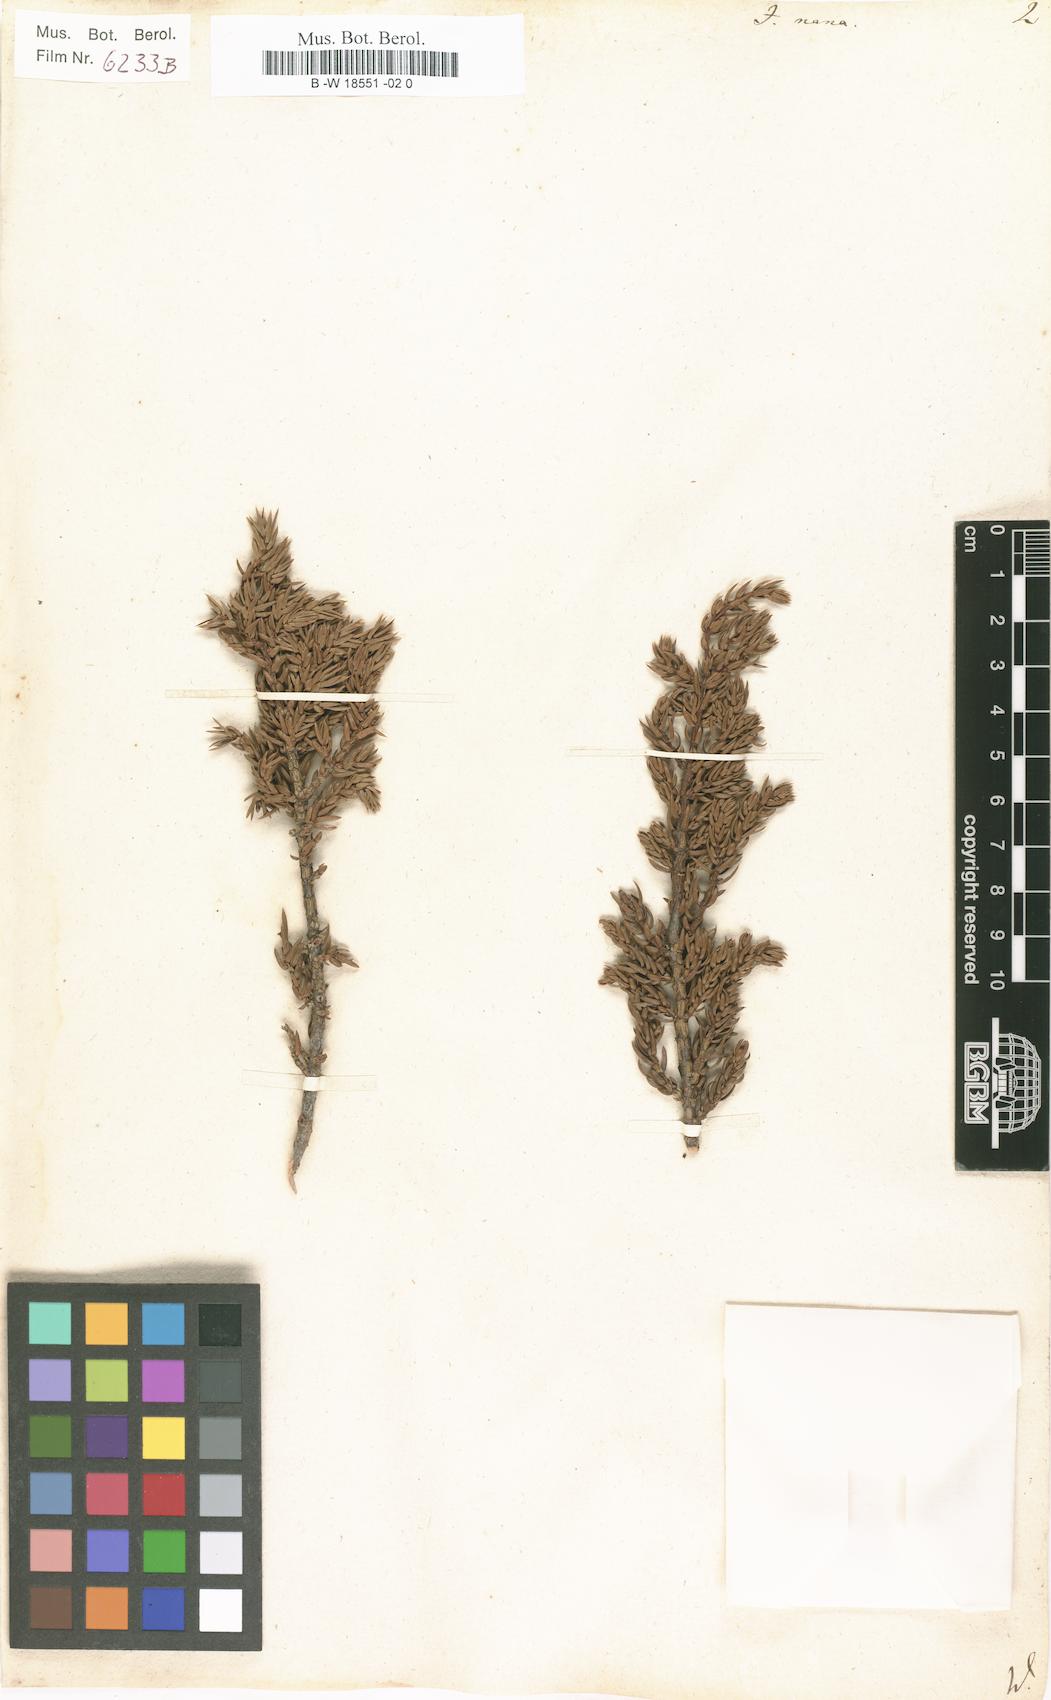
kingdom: Plantae
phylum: Tracheophyta
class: Pinopsida
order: Pinales
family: Cupressaceae
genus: Juniperus
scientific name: Juniperus communis
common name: Common juniper
